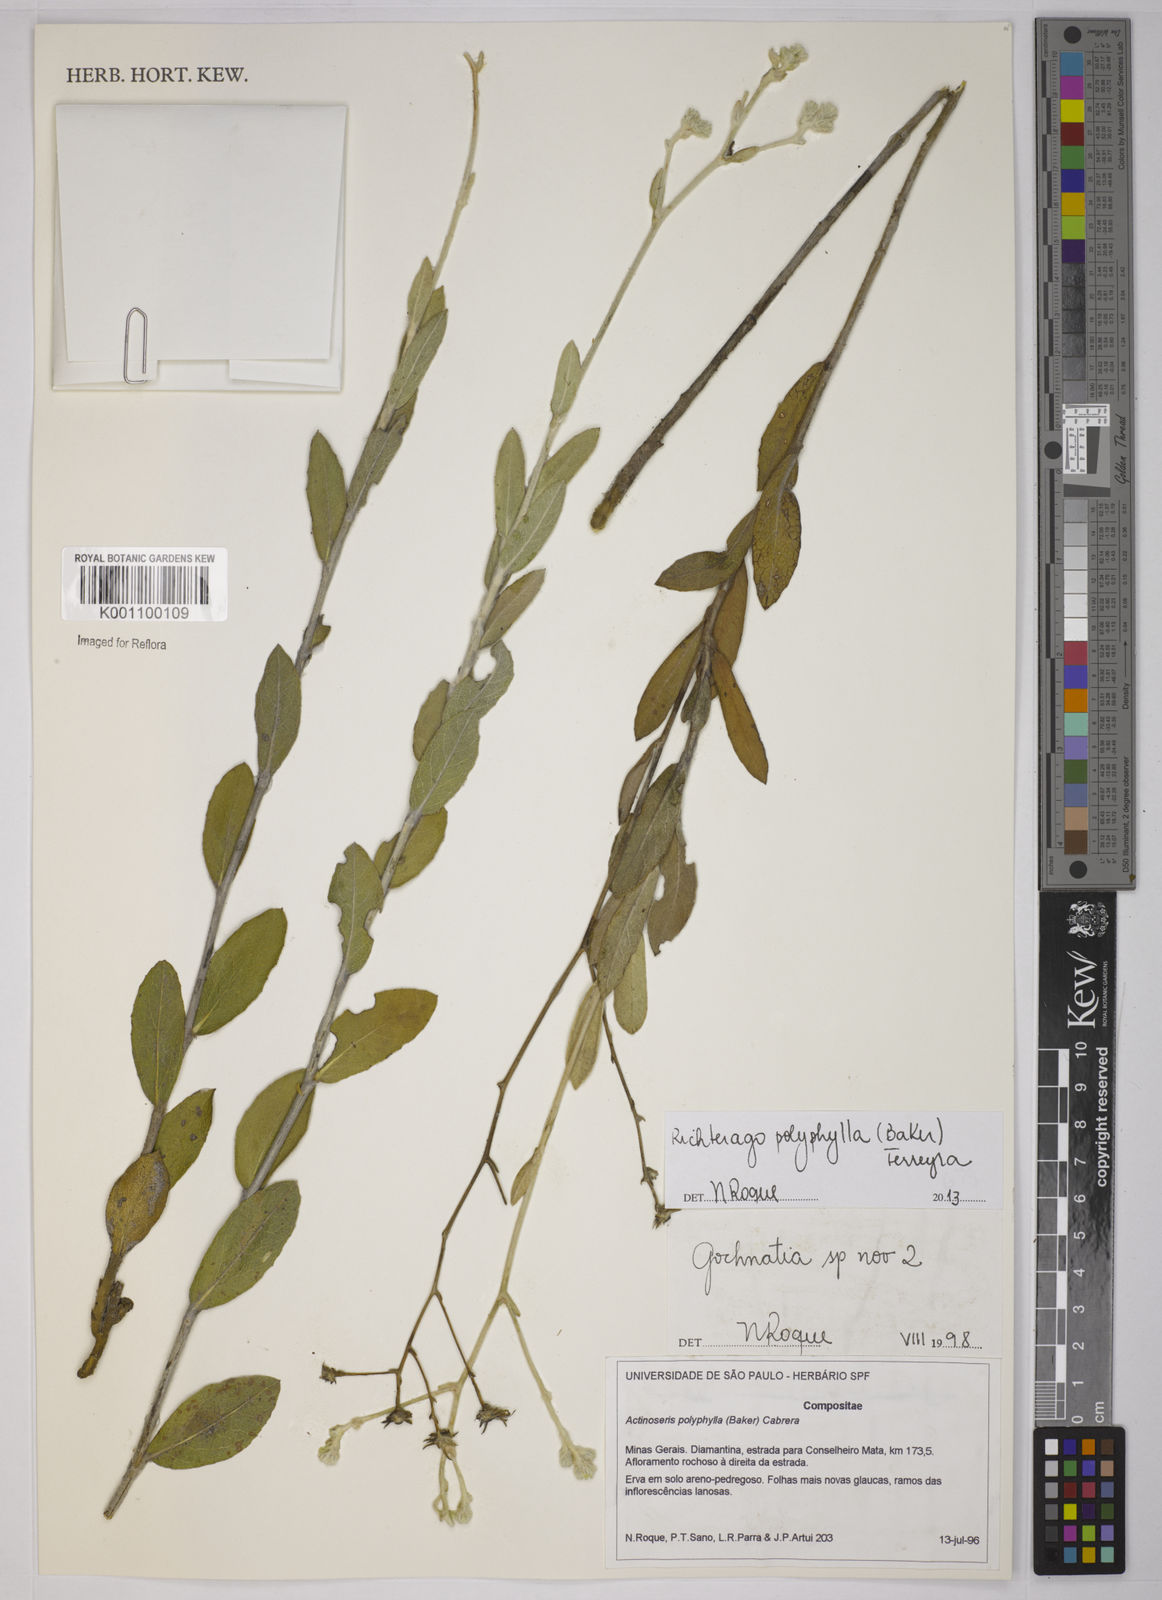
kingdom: Plantae
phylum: Tracheophyta
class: Magnoliopsida
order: Asterales
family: Asteraceae
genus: Richterago
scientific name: Richterago polyphylla
